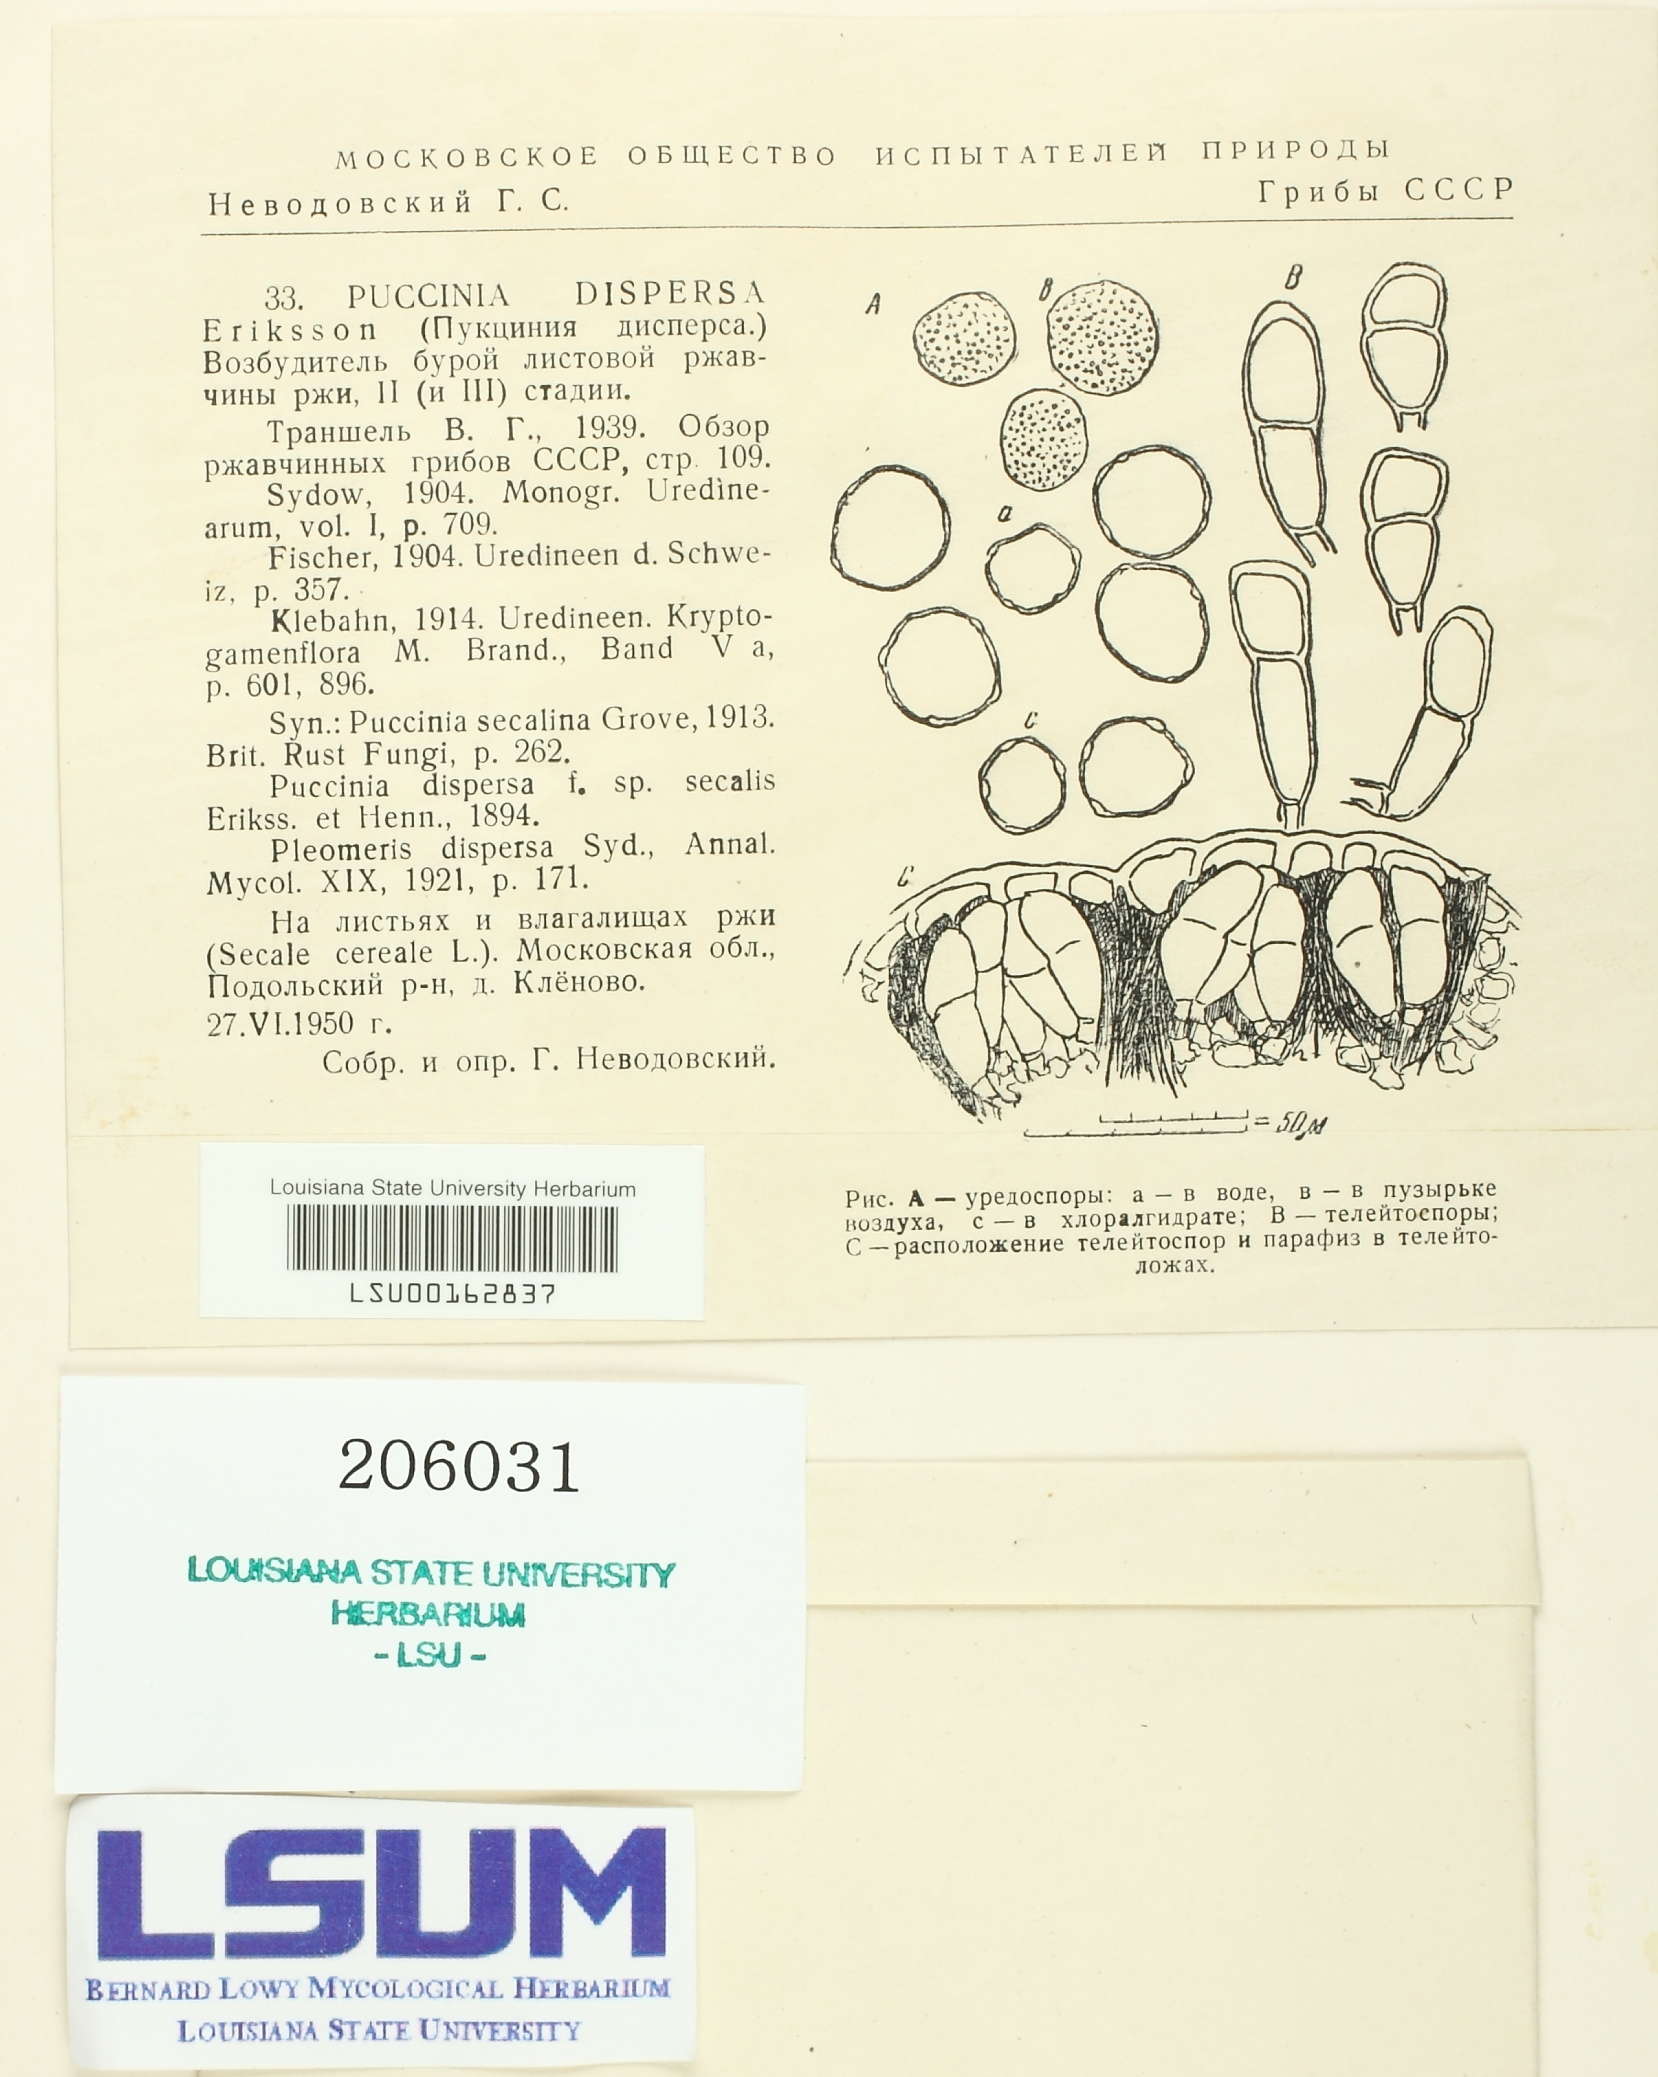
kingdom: Fungi
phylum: Basidiomycota
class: Pucciniomycetes
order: Pucciniales
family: Pucciniaceae
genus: Puccinia
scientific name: Puccinia recondita
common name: Brown rust of wheat
